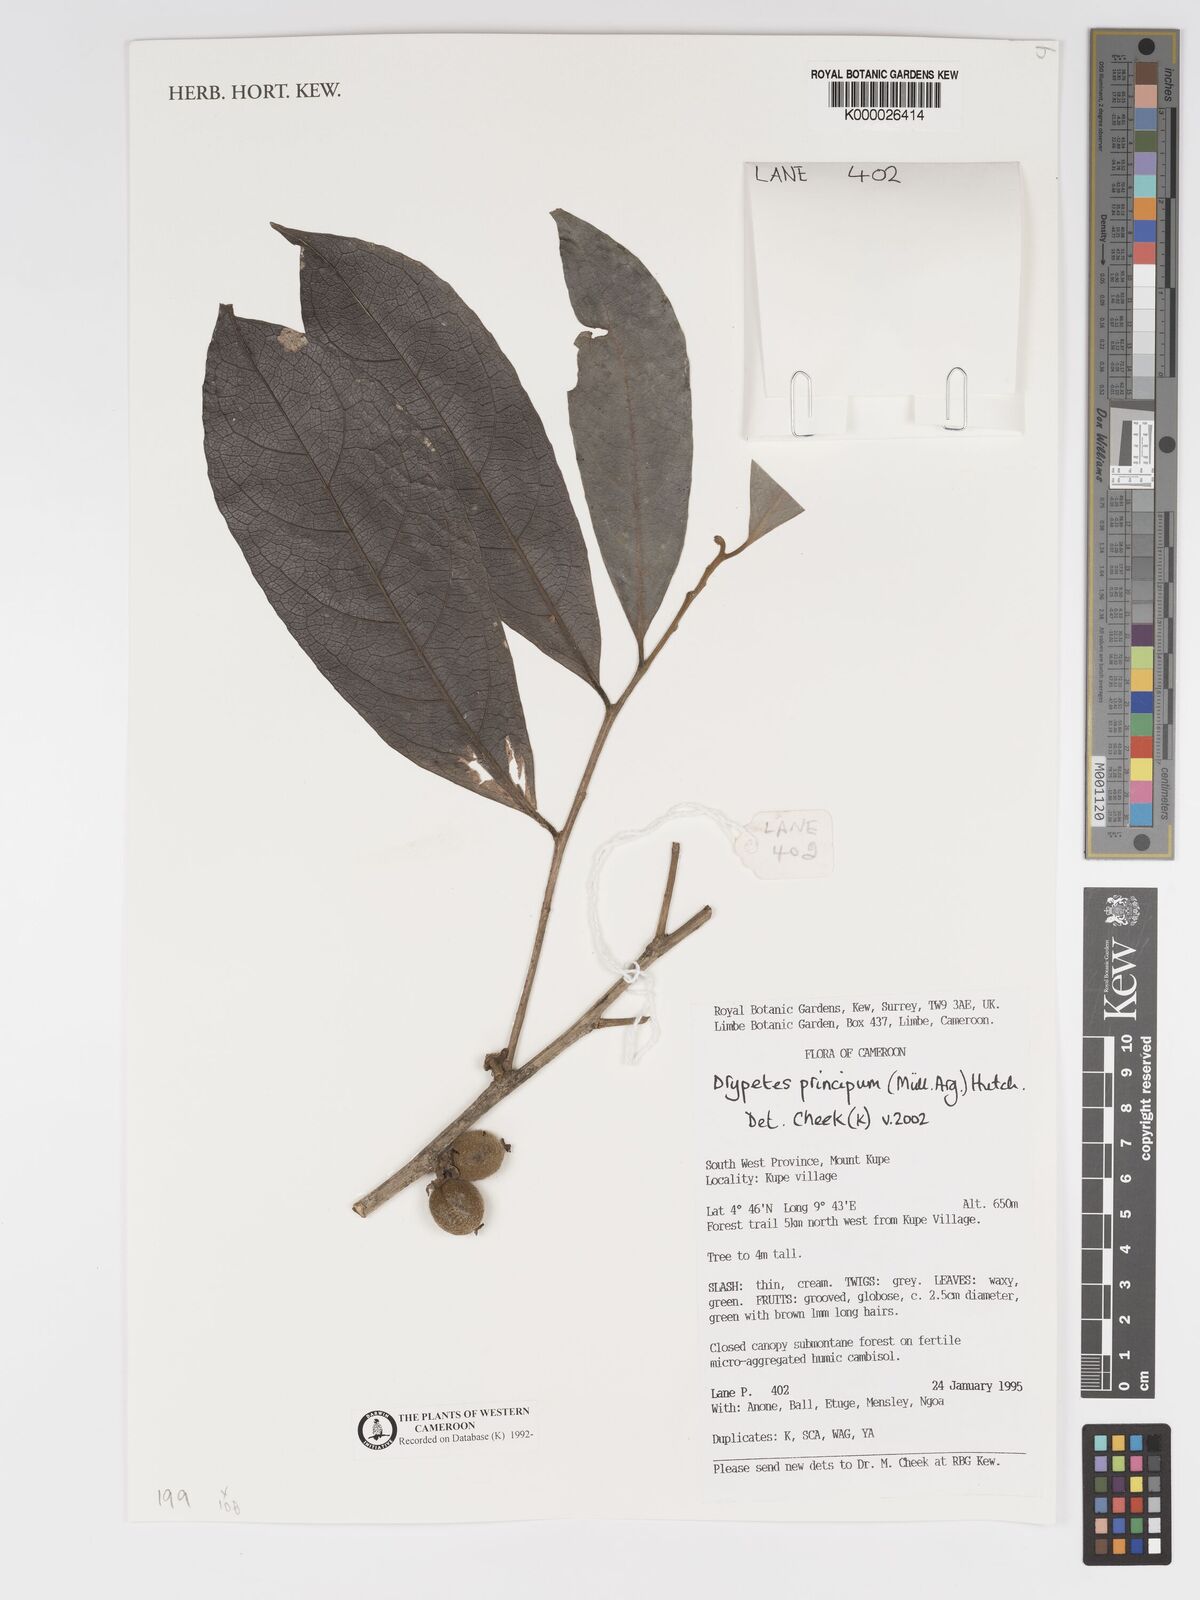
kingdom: Plantae
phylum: Tracheophyta
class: Magnoliopsida
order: Malpighiales
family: Putranjivaceae
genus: Drypetes
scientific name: Drypetes
